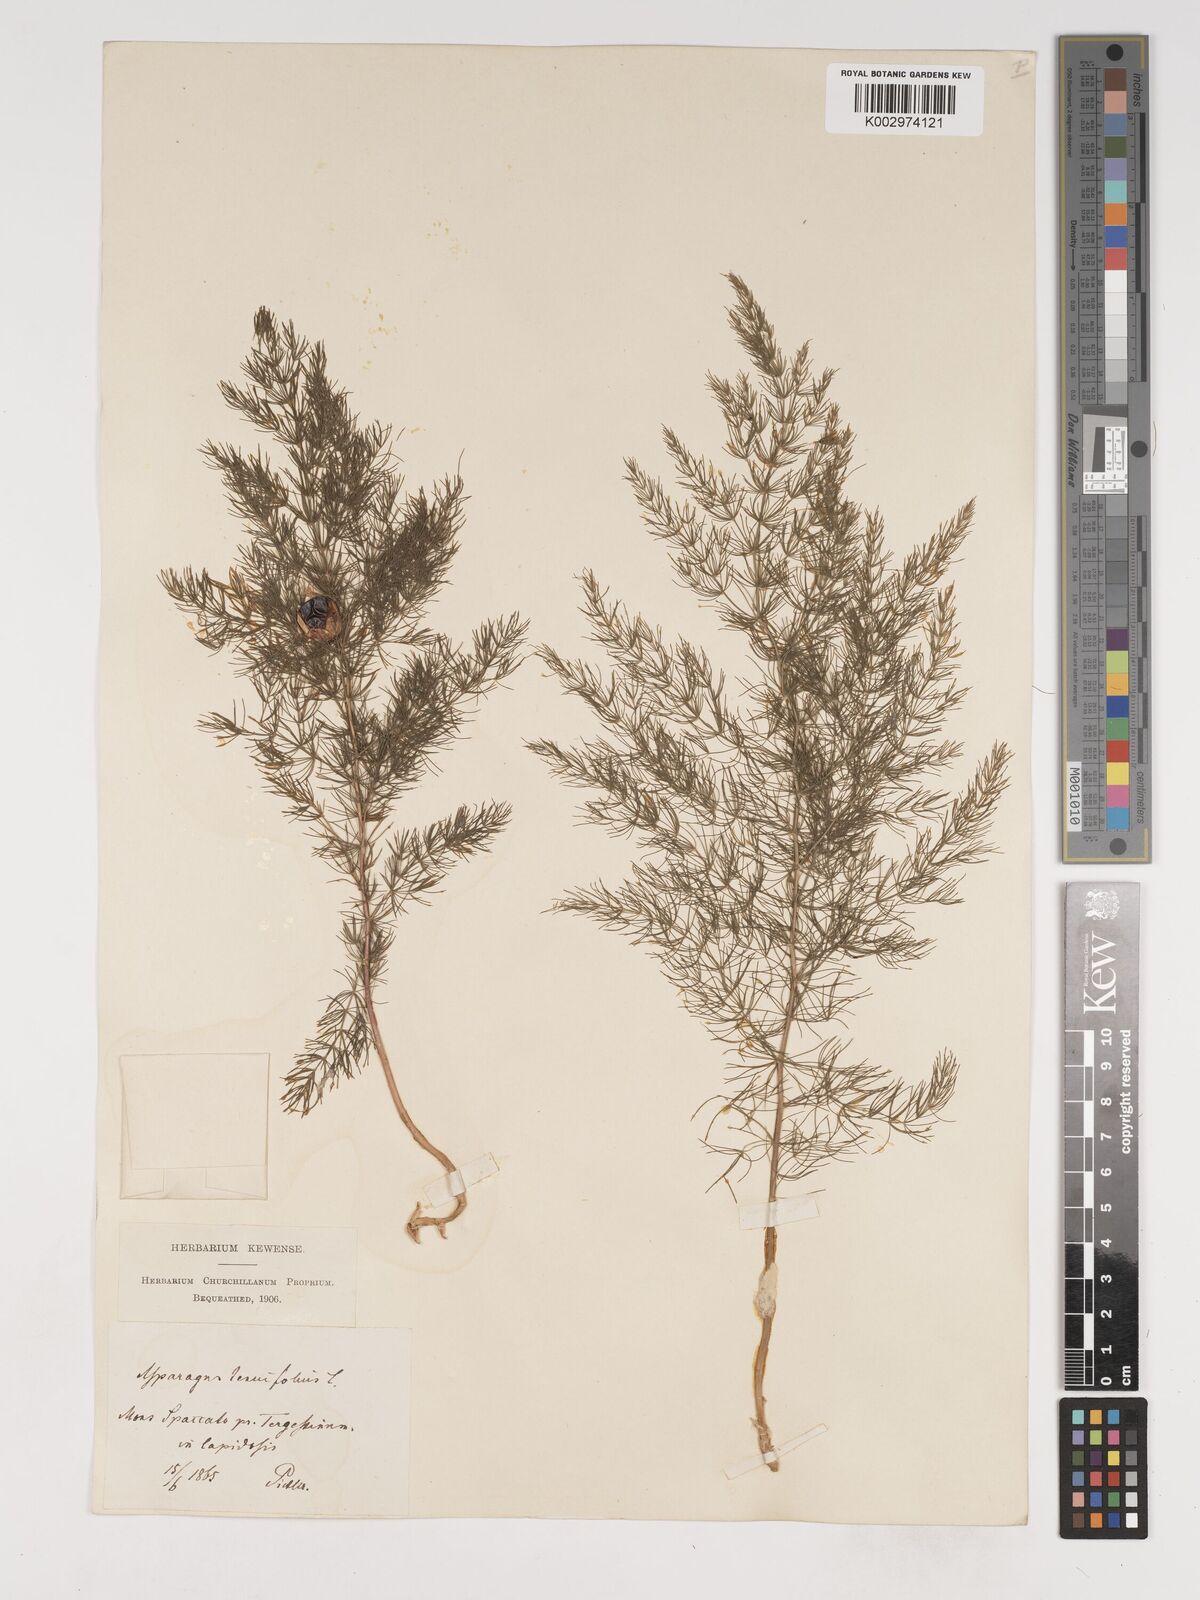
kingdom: Plantae
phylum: Tracheophyta
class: Liliopsida
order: Asparagales
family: Asparagaceae
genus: Asparagus
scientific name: Asparagus tenuifolius
